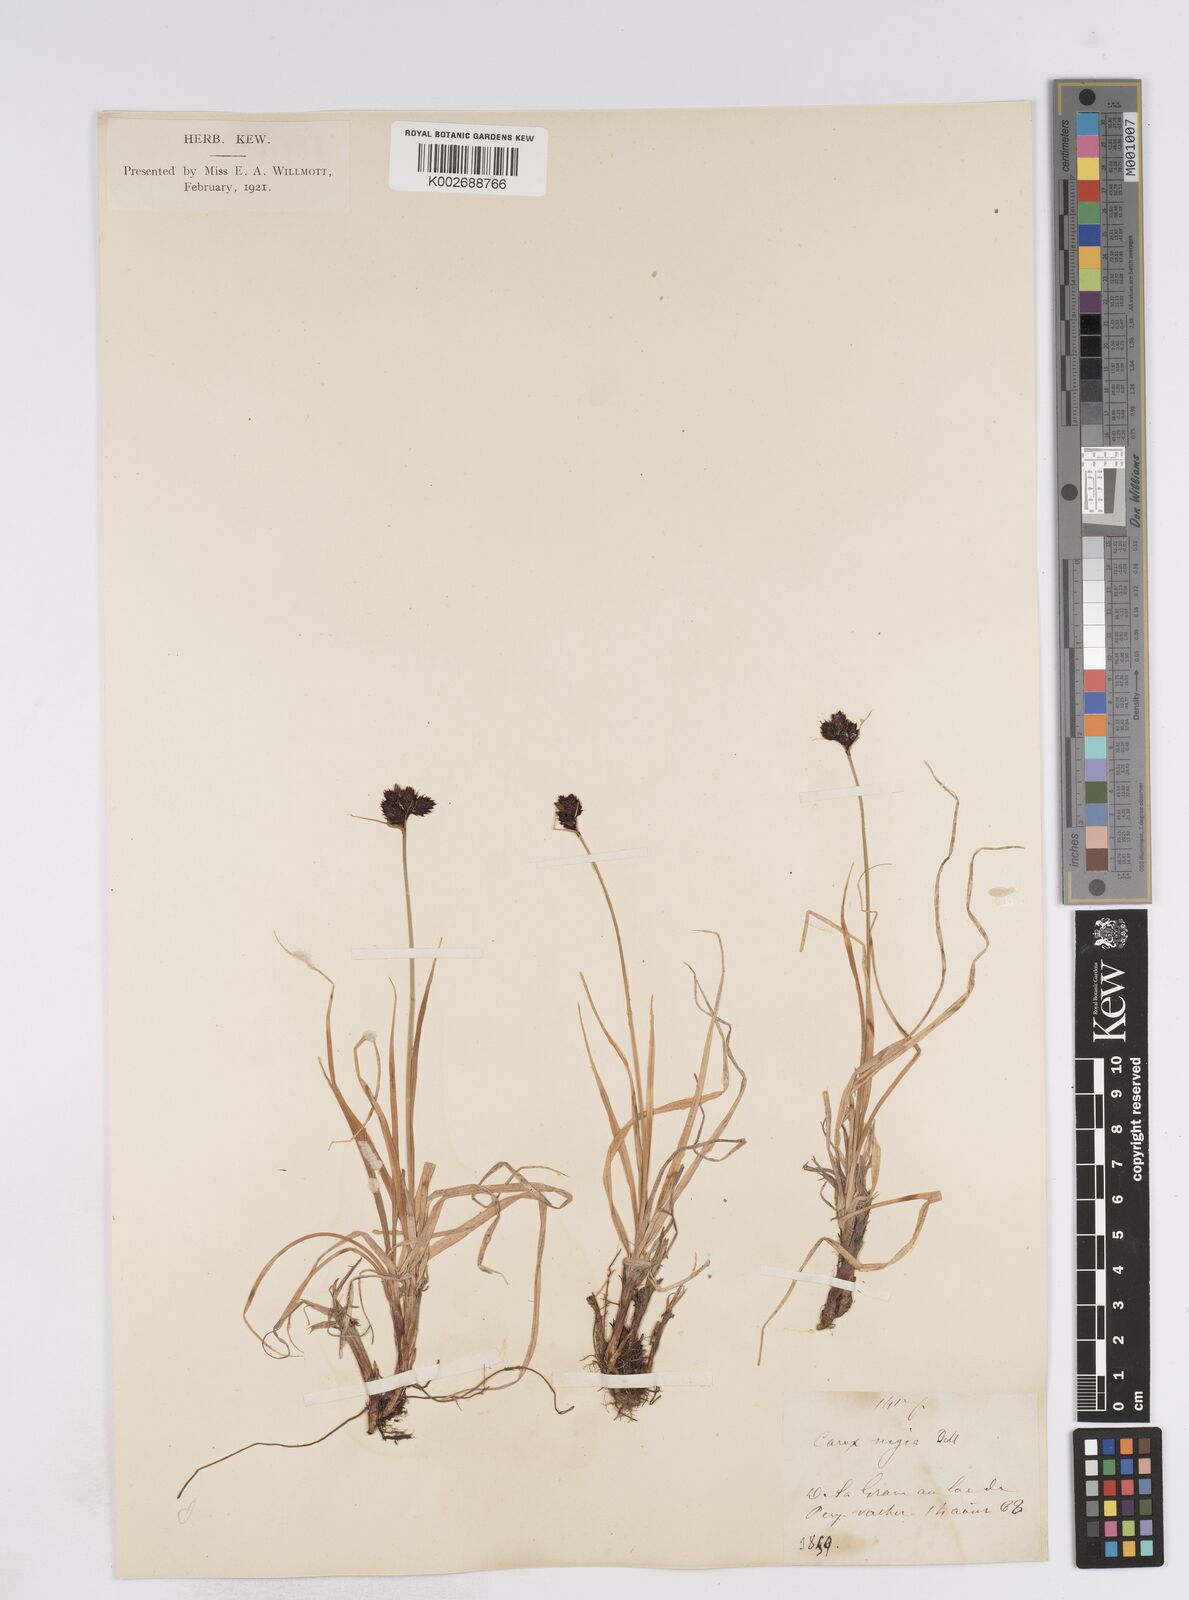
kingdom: Plantae
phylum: Tracheophyta
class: Liliopsida
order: Poales
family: Cyperaceae
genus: Carex
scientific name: Carex parviflora
